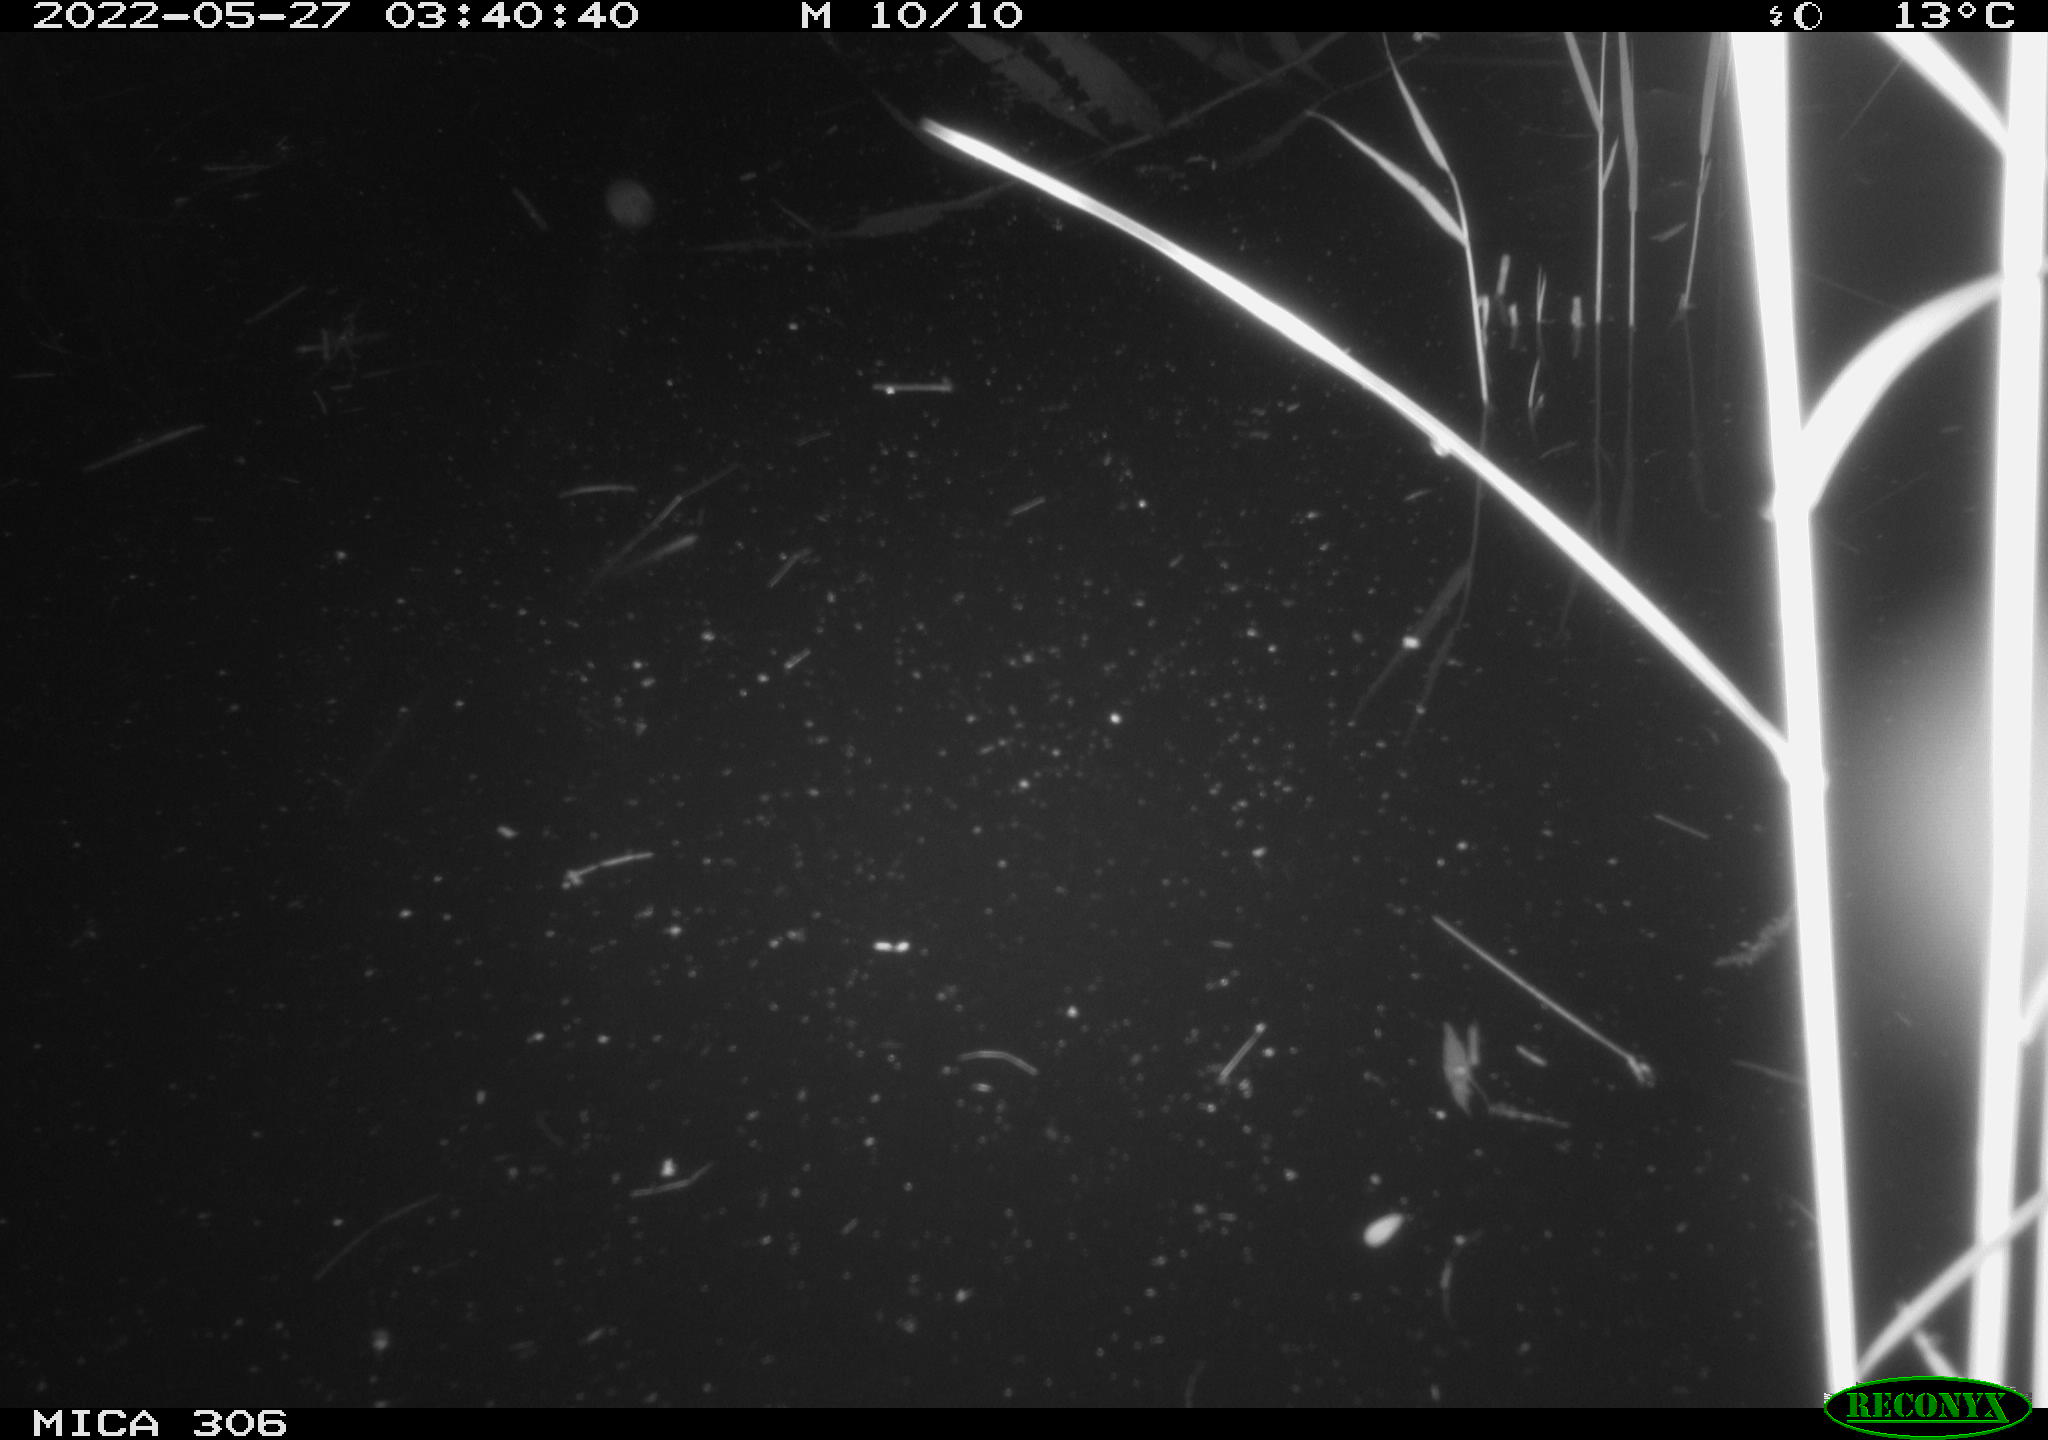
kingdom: Animalia
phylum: Chordata
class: Mammalia
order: Rodentia
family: Cricetidae
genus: Ondatra
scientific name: Ondatra zibethicus
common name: Muskrat
